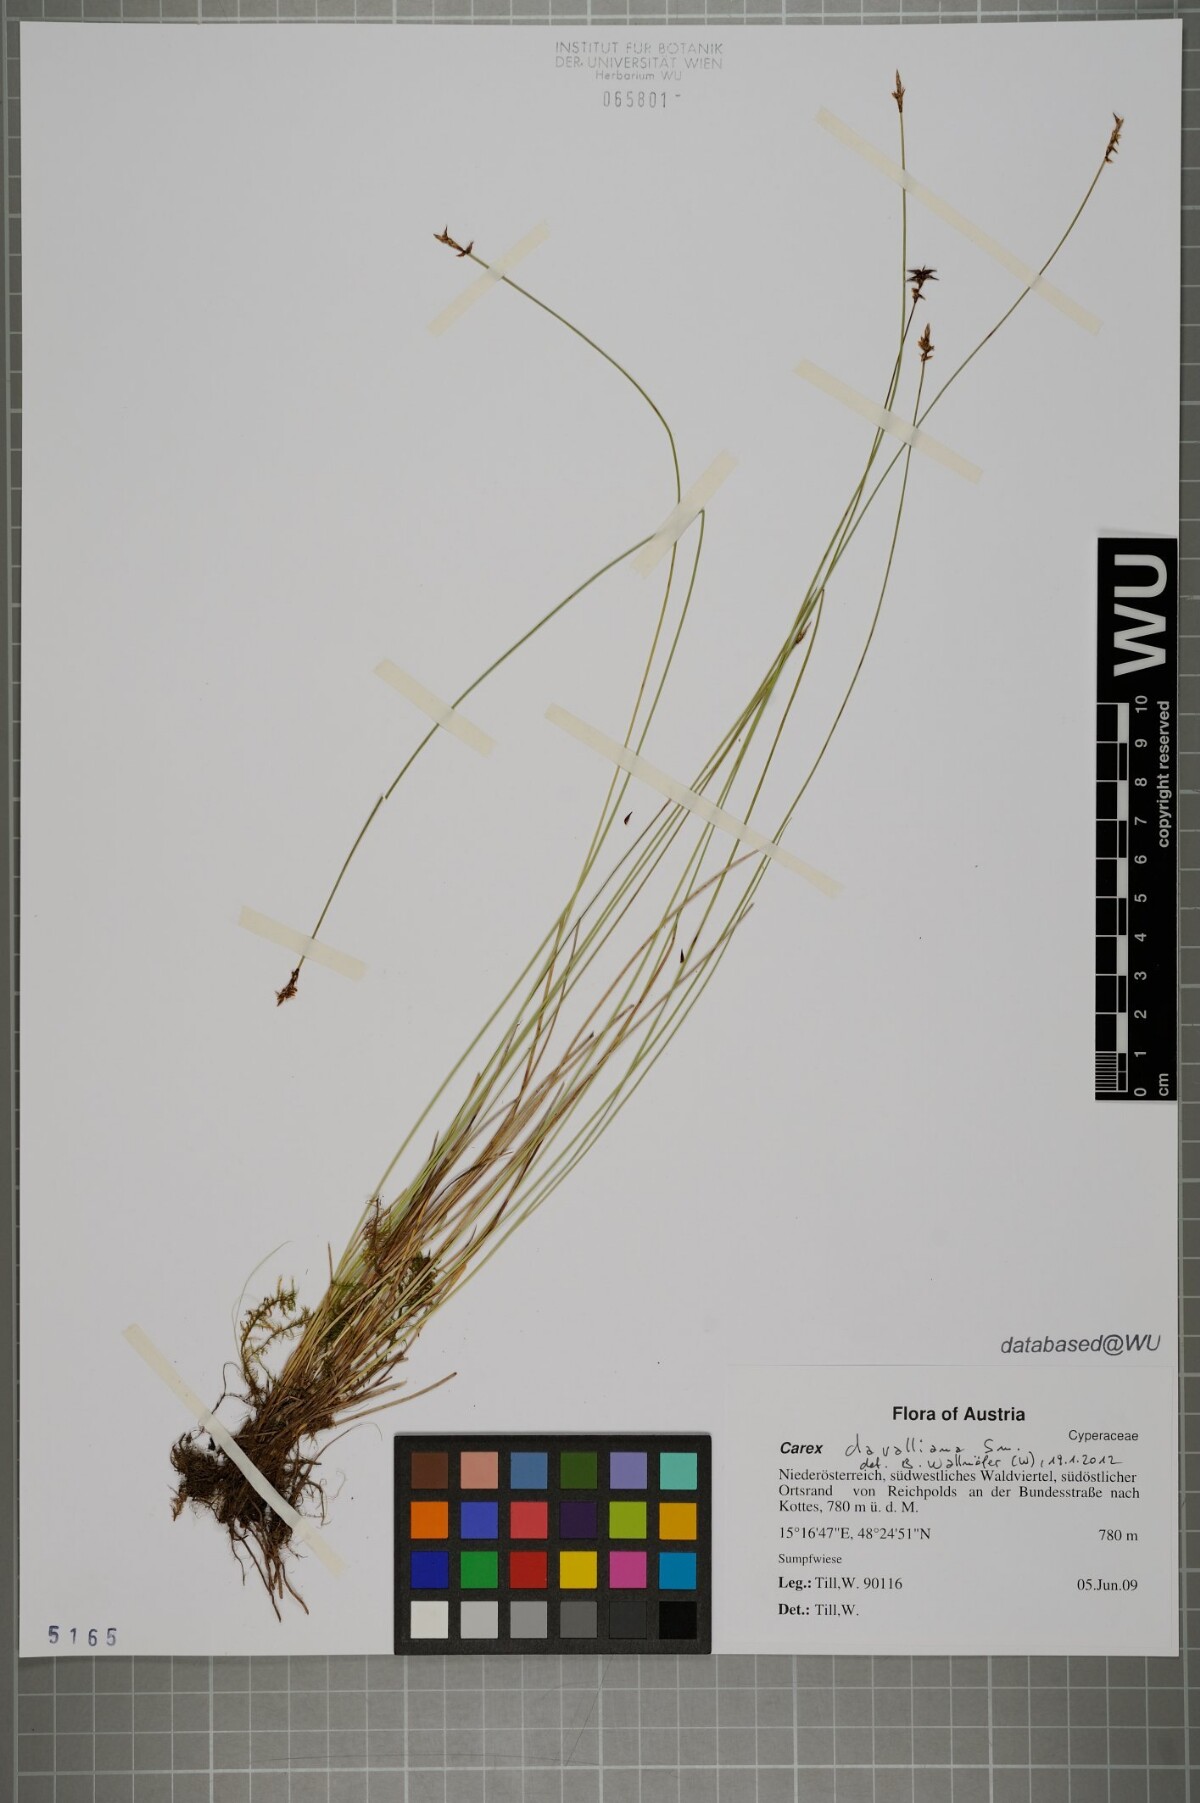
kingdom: Plantae
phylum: Tracheophyta
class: Liliopsida
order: Poales
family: Cyperaceae
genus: Carex
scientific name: Carex davalliana
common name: Davall's sedge
